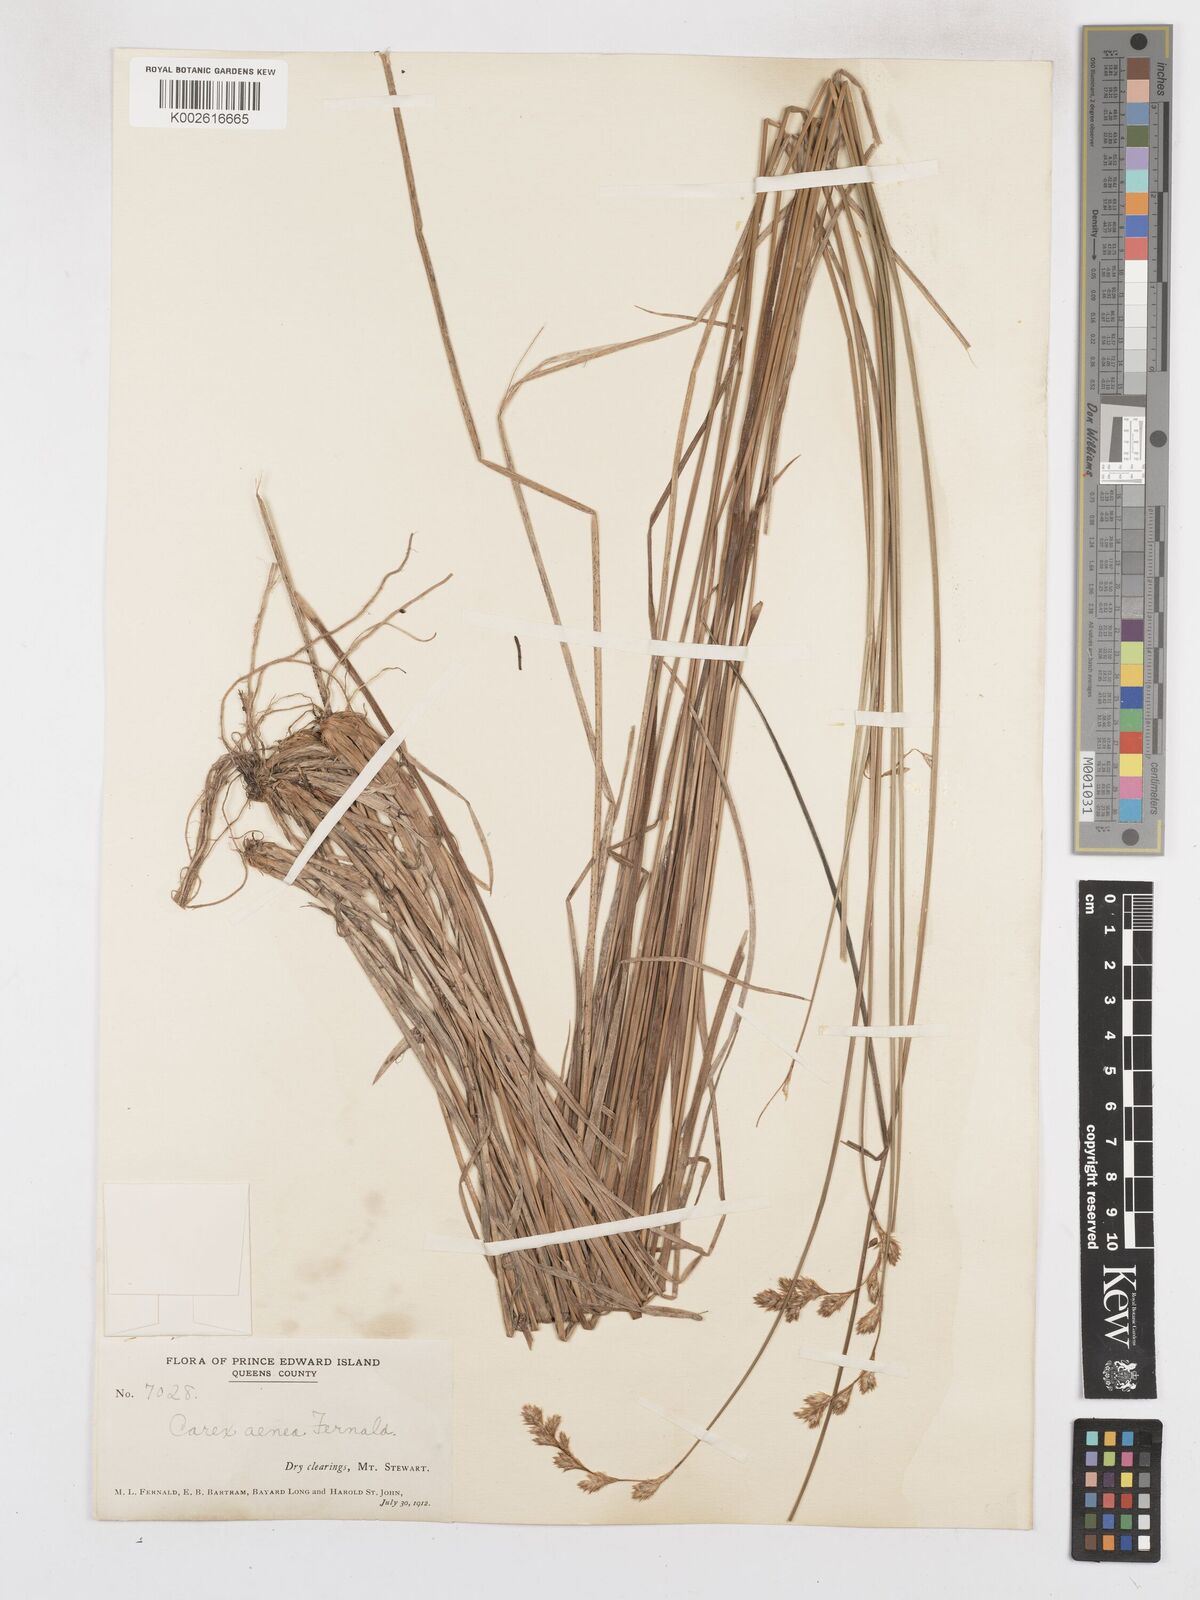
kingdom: Plantae
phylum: Tracheophyta
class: Liliopsida
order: Poales
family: Cyperaceae
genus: Carex
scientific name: Carex foenea
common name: Bronze sedge
